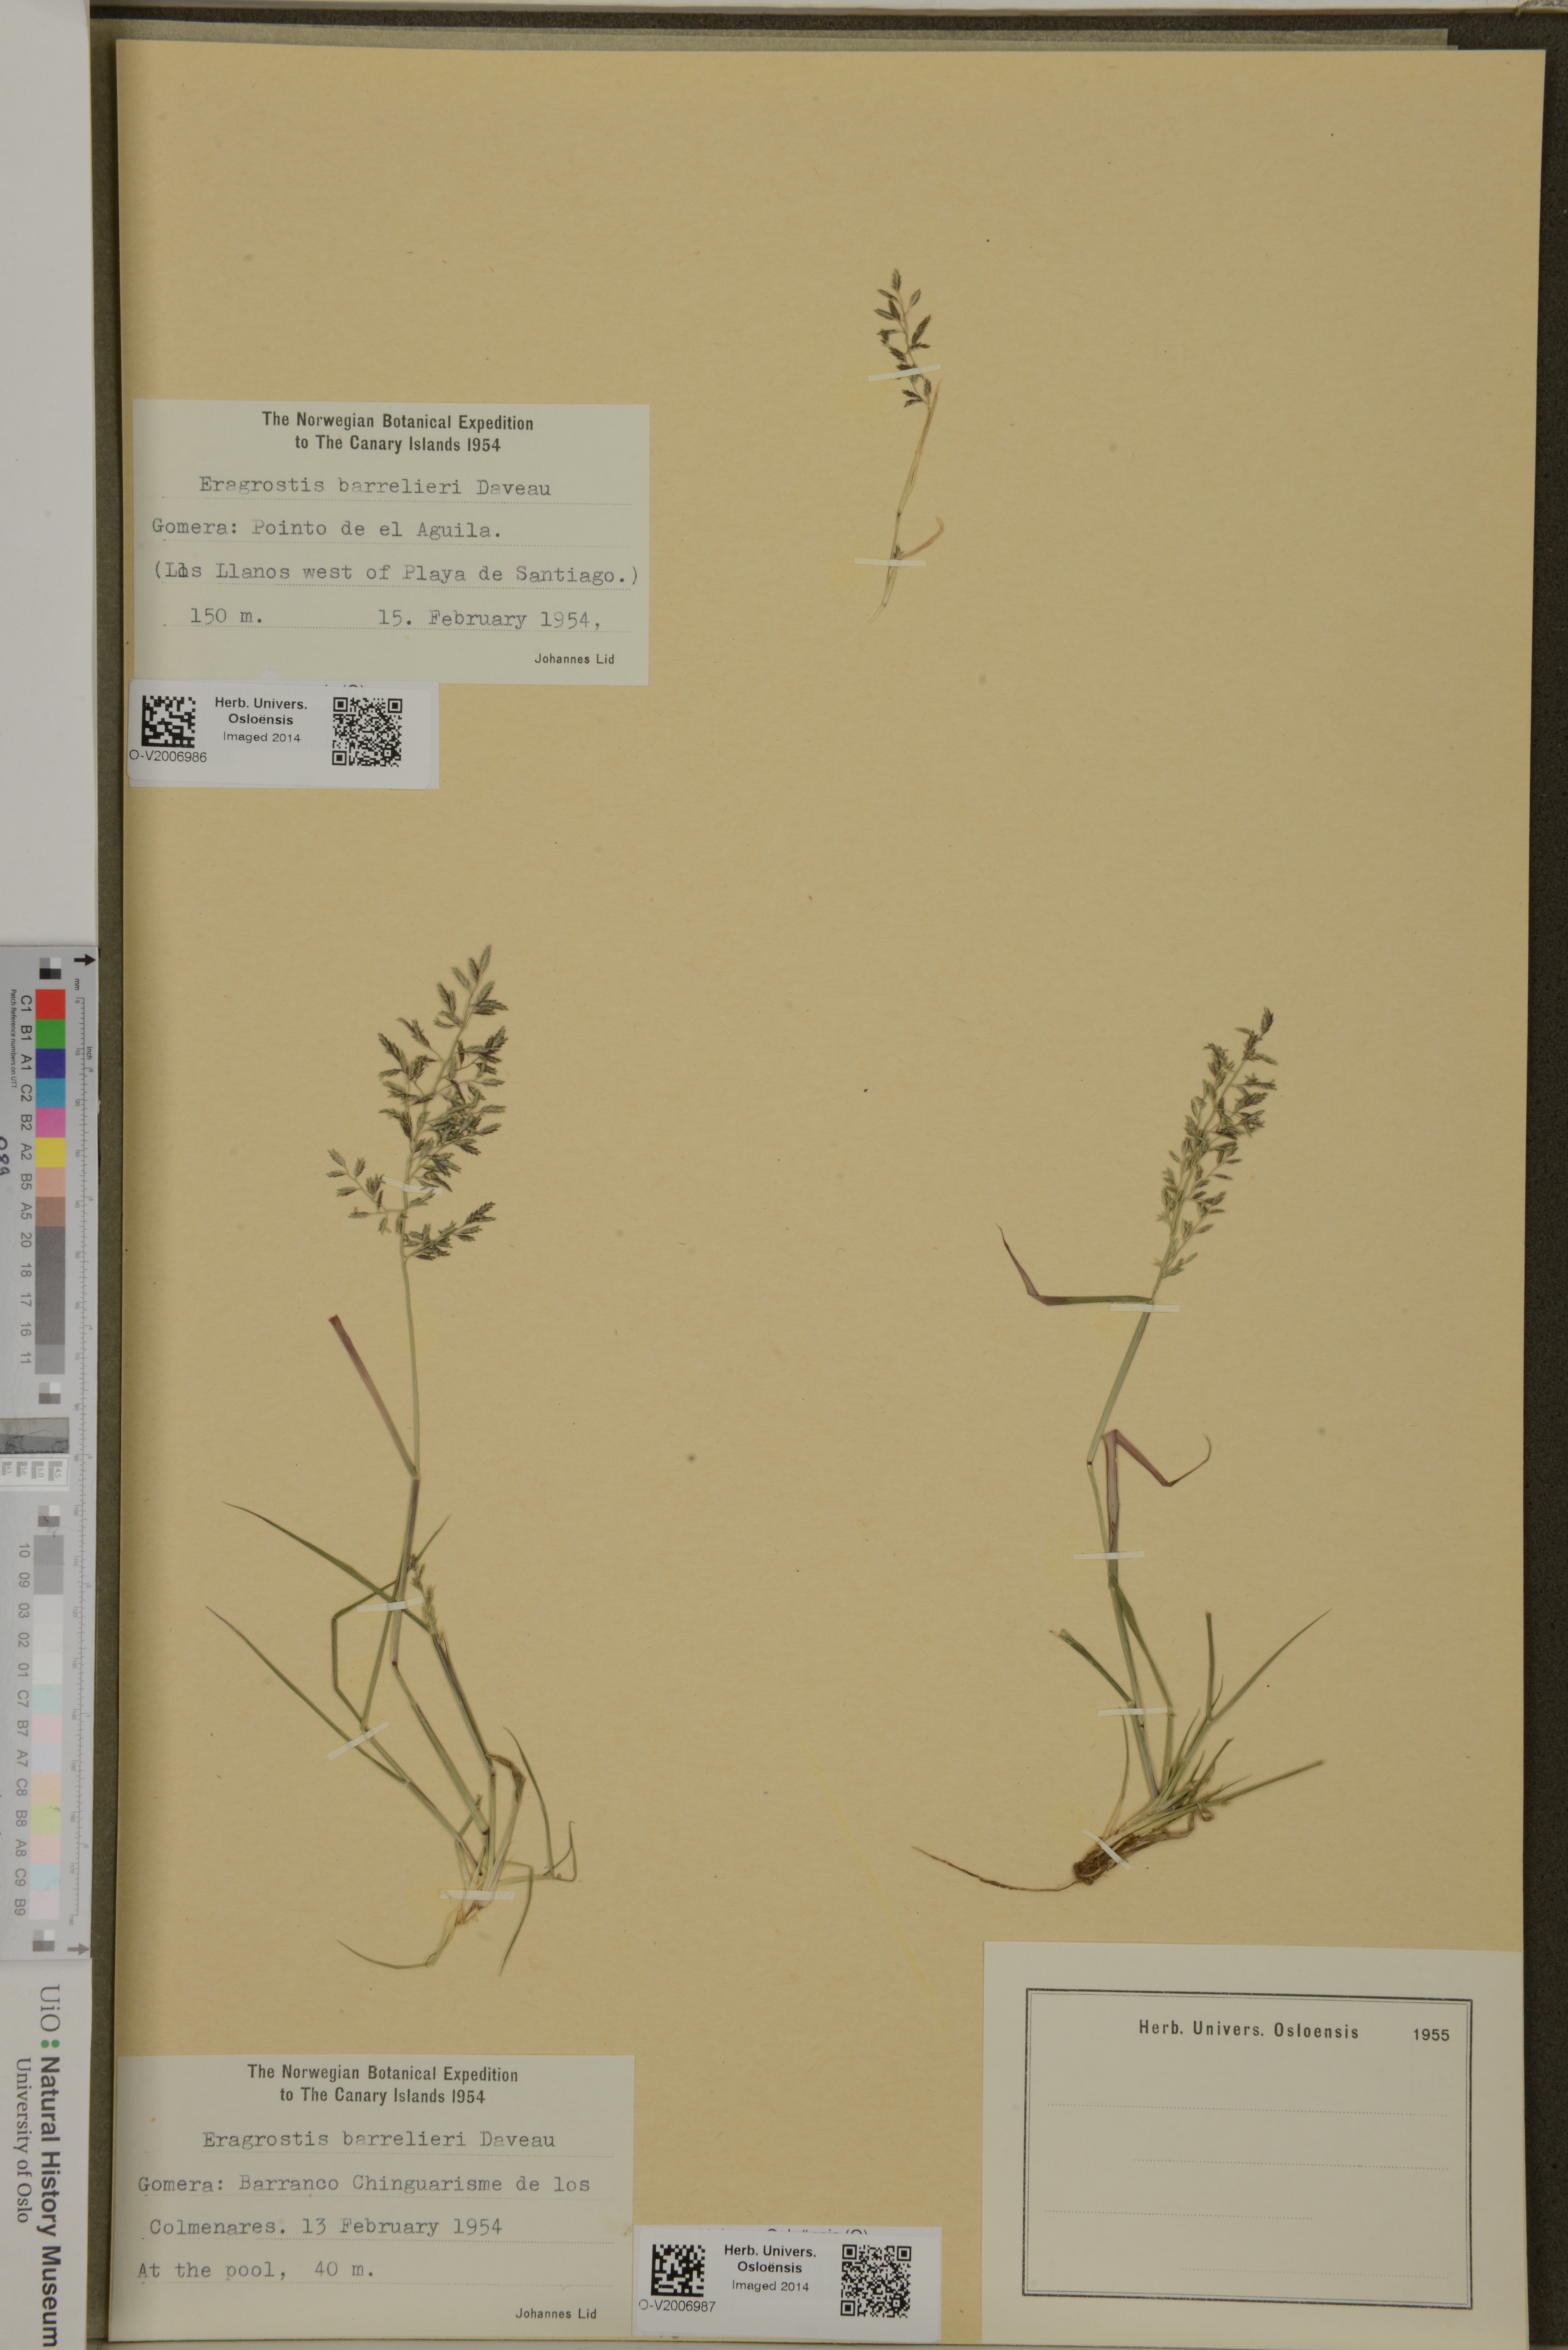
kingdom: Plantae
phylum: Tracheophyta
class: Liliopsida
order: Poales
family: Poaceae
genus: Eragrostis
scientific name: Eragrostis barrelieri
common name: Mediterranean lovegrass
